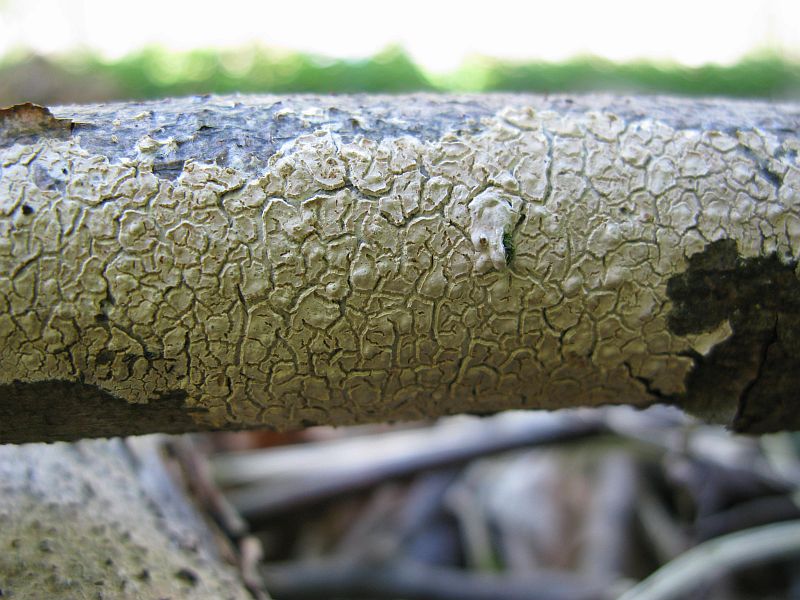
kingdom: Fungi
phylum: Basidiomycota
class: Agaricomycetes
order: Agaricales
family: Physalacriaceae
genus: Cylindrobasidium
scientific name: Cylindrobasidium evolvens
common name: sprækkehinde
